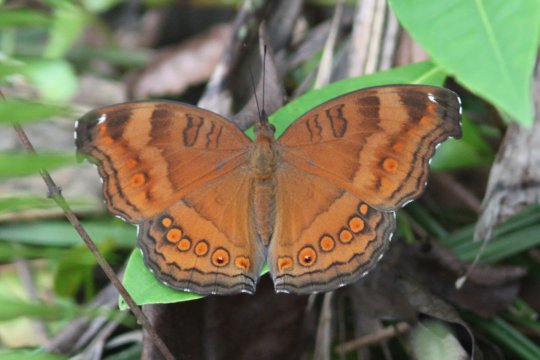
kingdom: Animalia
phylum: Arthropoda
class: Insecta
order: Lepidoptera
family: Nymphalidae
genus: Junonia
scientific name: Junonia hedonia
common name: Brown Pansy
